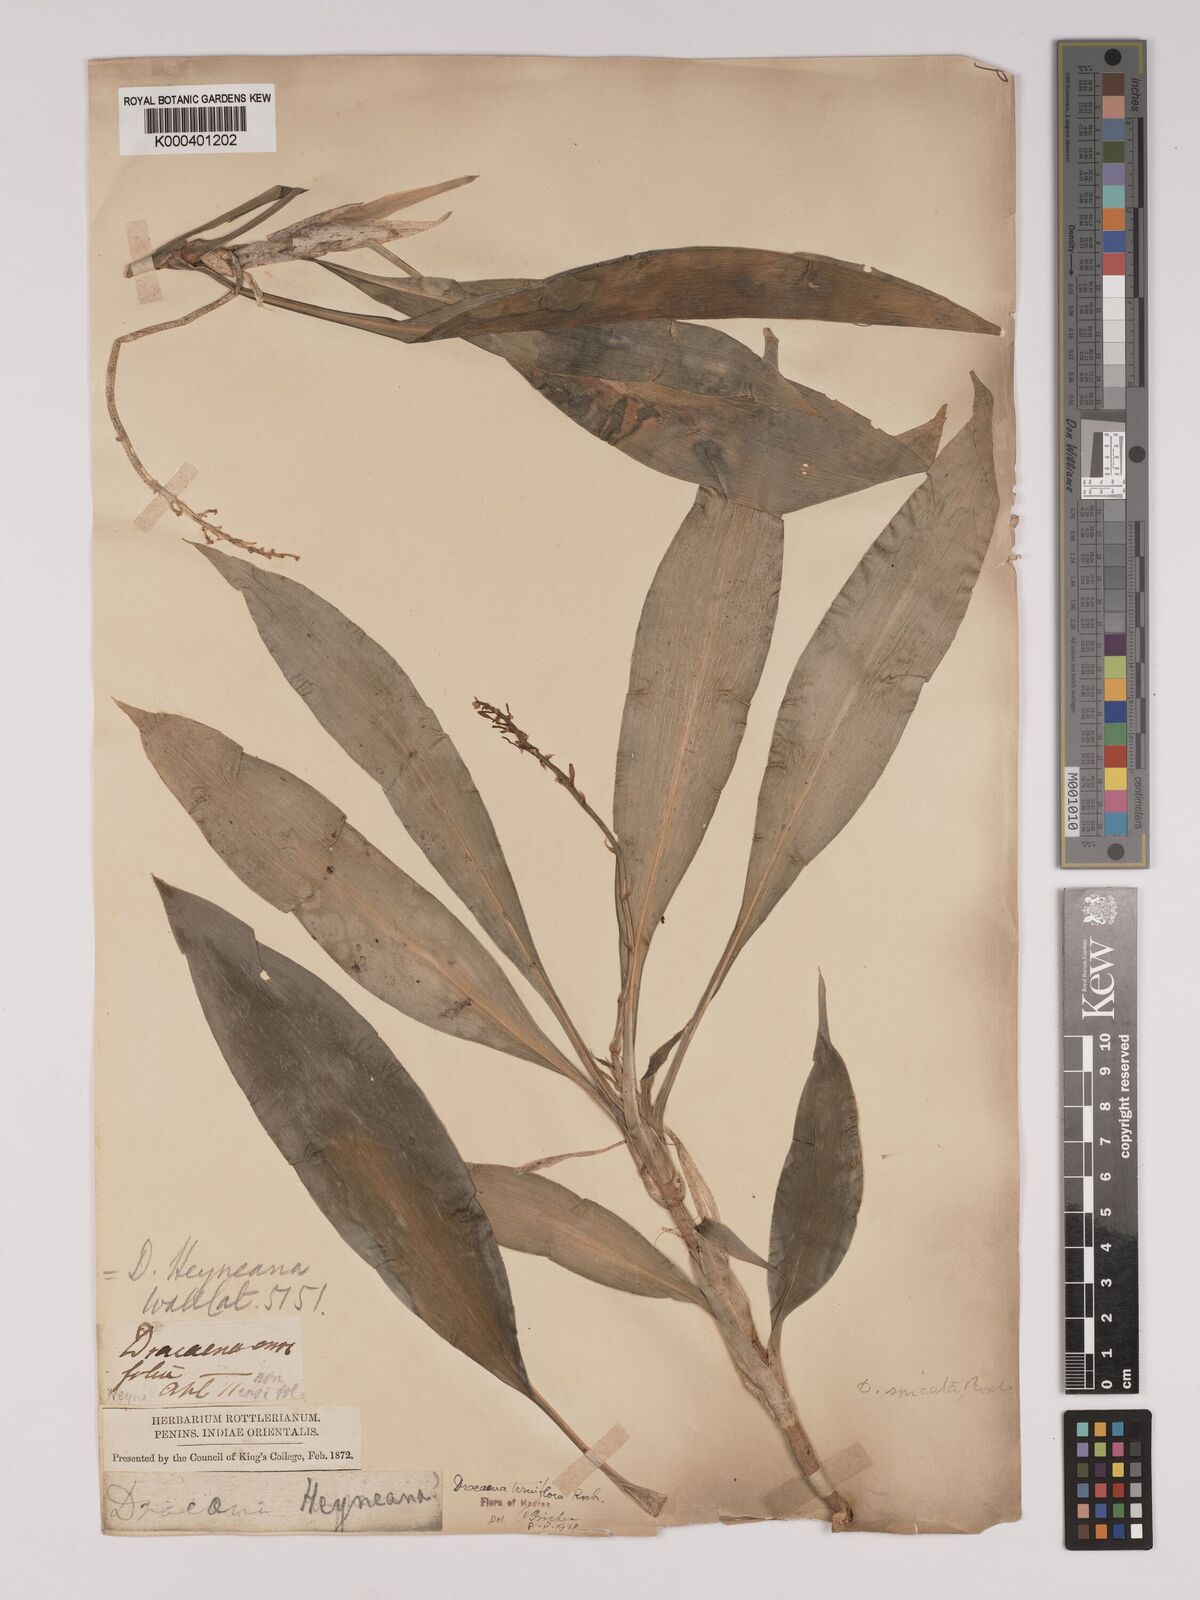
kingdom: Plantae
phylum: Tracheophyta
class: Liliopsida
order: Asparagales
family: Asparagaceae
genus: Dracaena
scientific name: Dracaena terniflora
